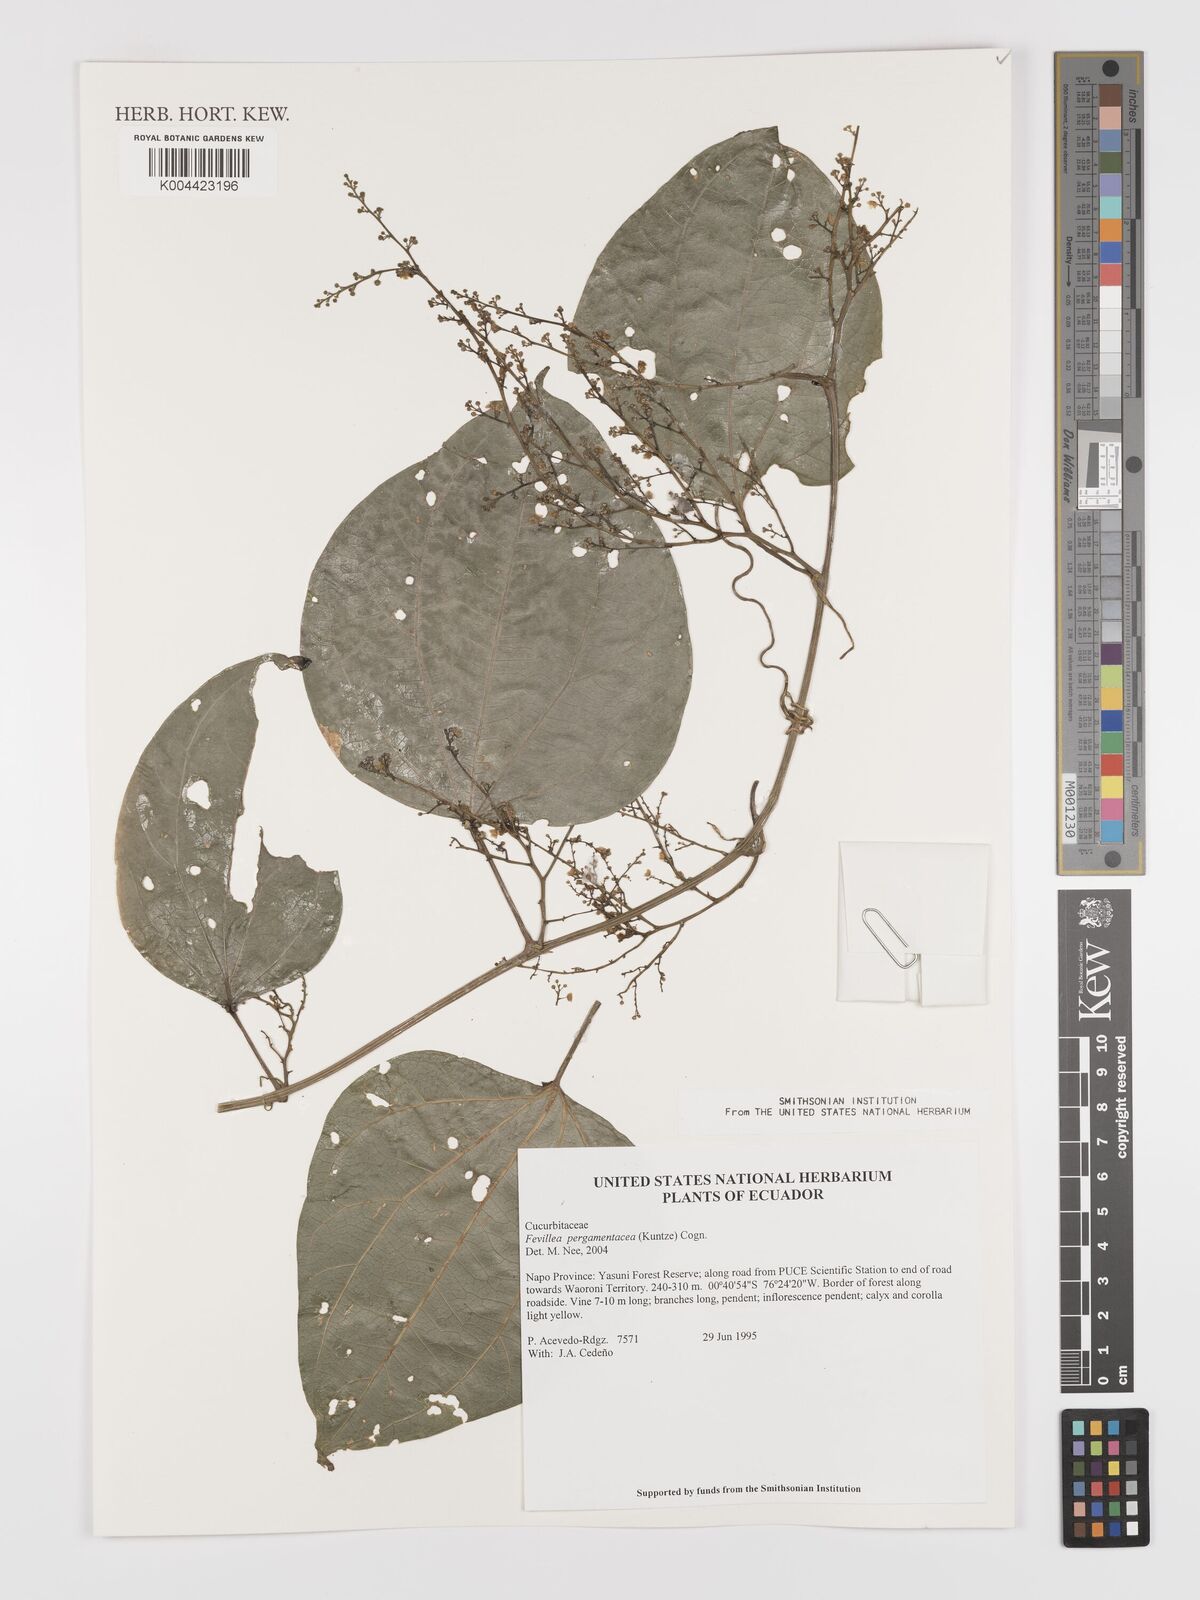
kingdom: Plantae
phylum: Tracheophyta
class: Magnoliopsida
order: Cucurbitales
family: Cucurbitaceae
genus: Fevillea
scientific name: Fevillea pergamentacea
